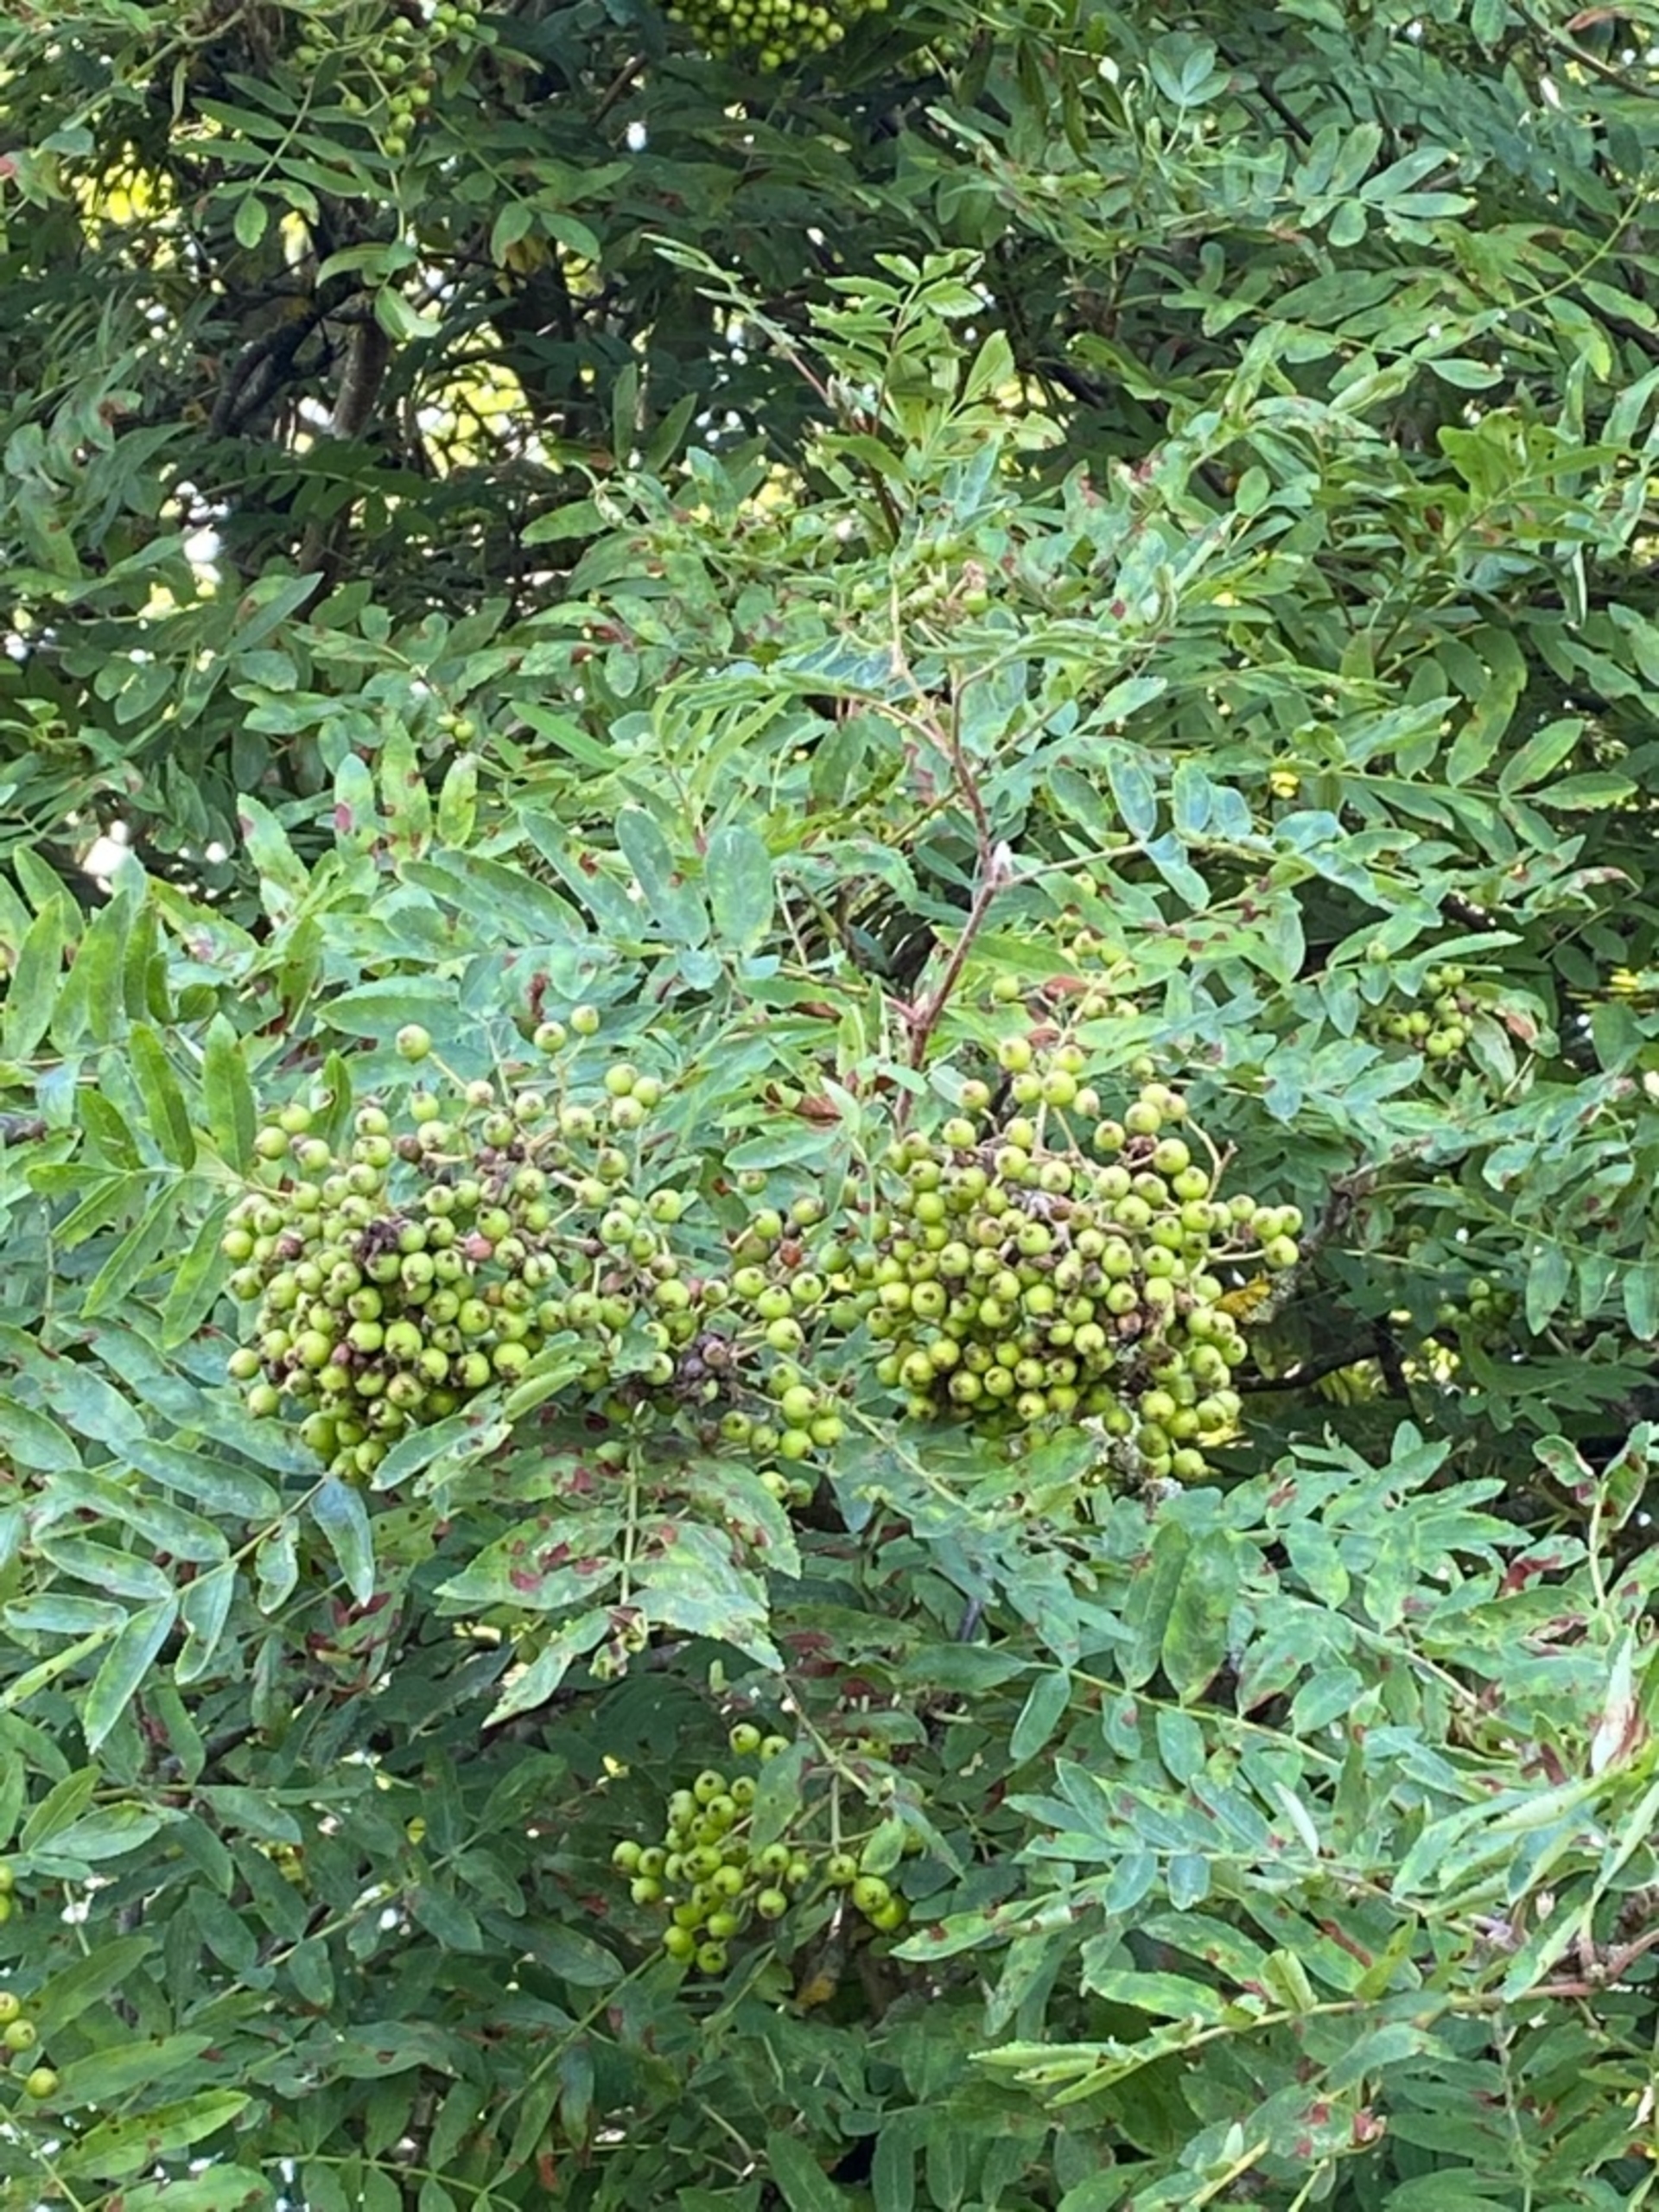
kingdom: Plantae
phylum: Tracheophyta
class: Magnoliopsida
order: Rosales
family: Rosaceae
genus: Sorbus
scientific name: Sorbus aucuparia
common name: Almindelig røn
